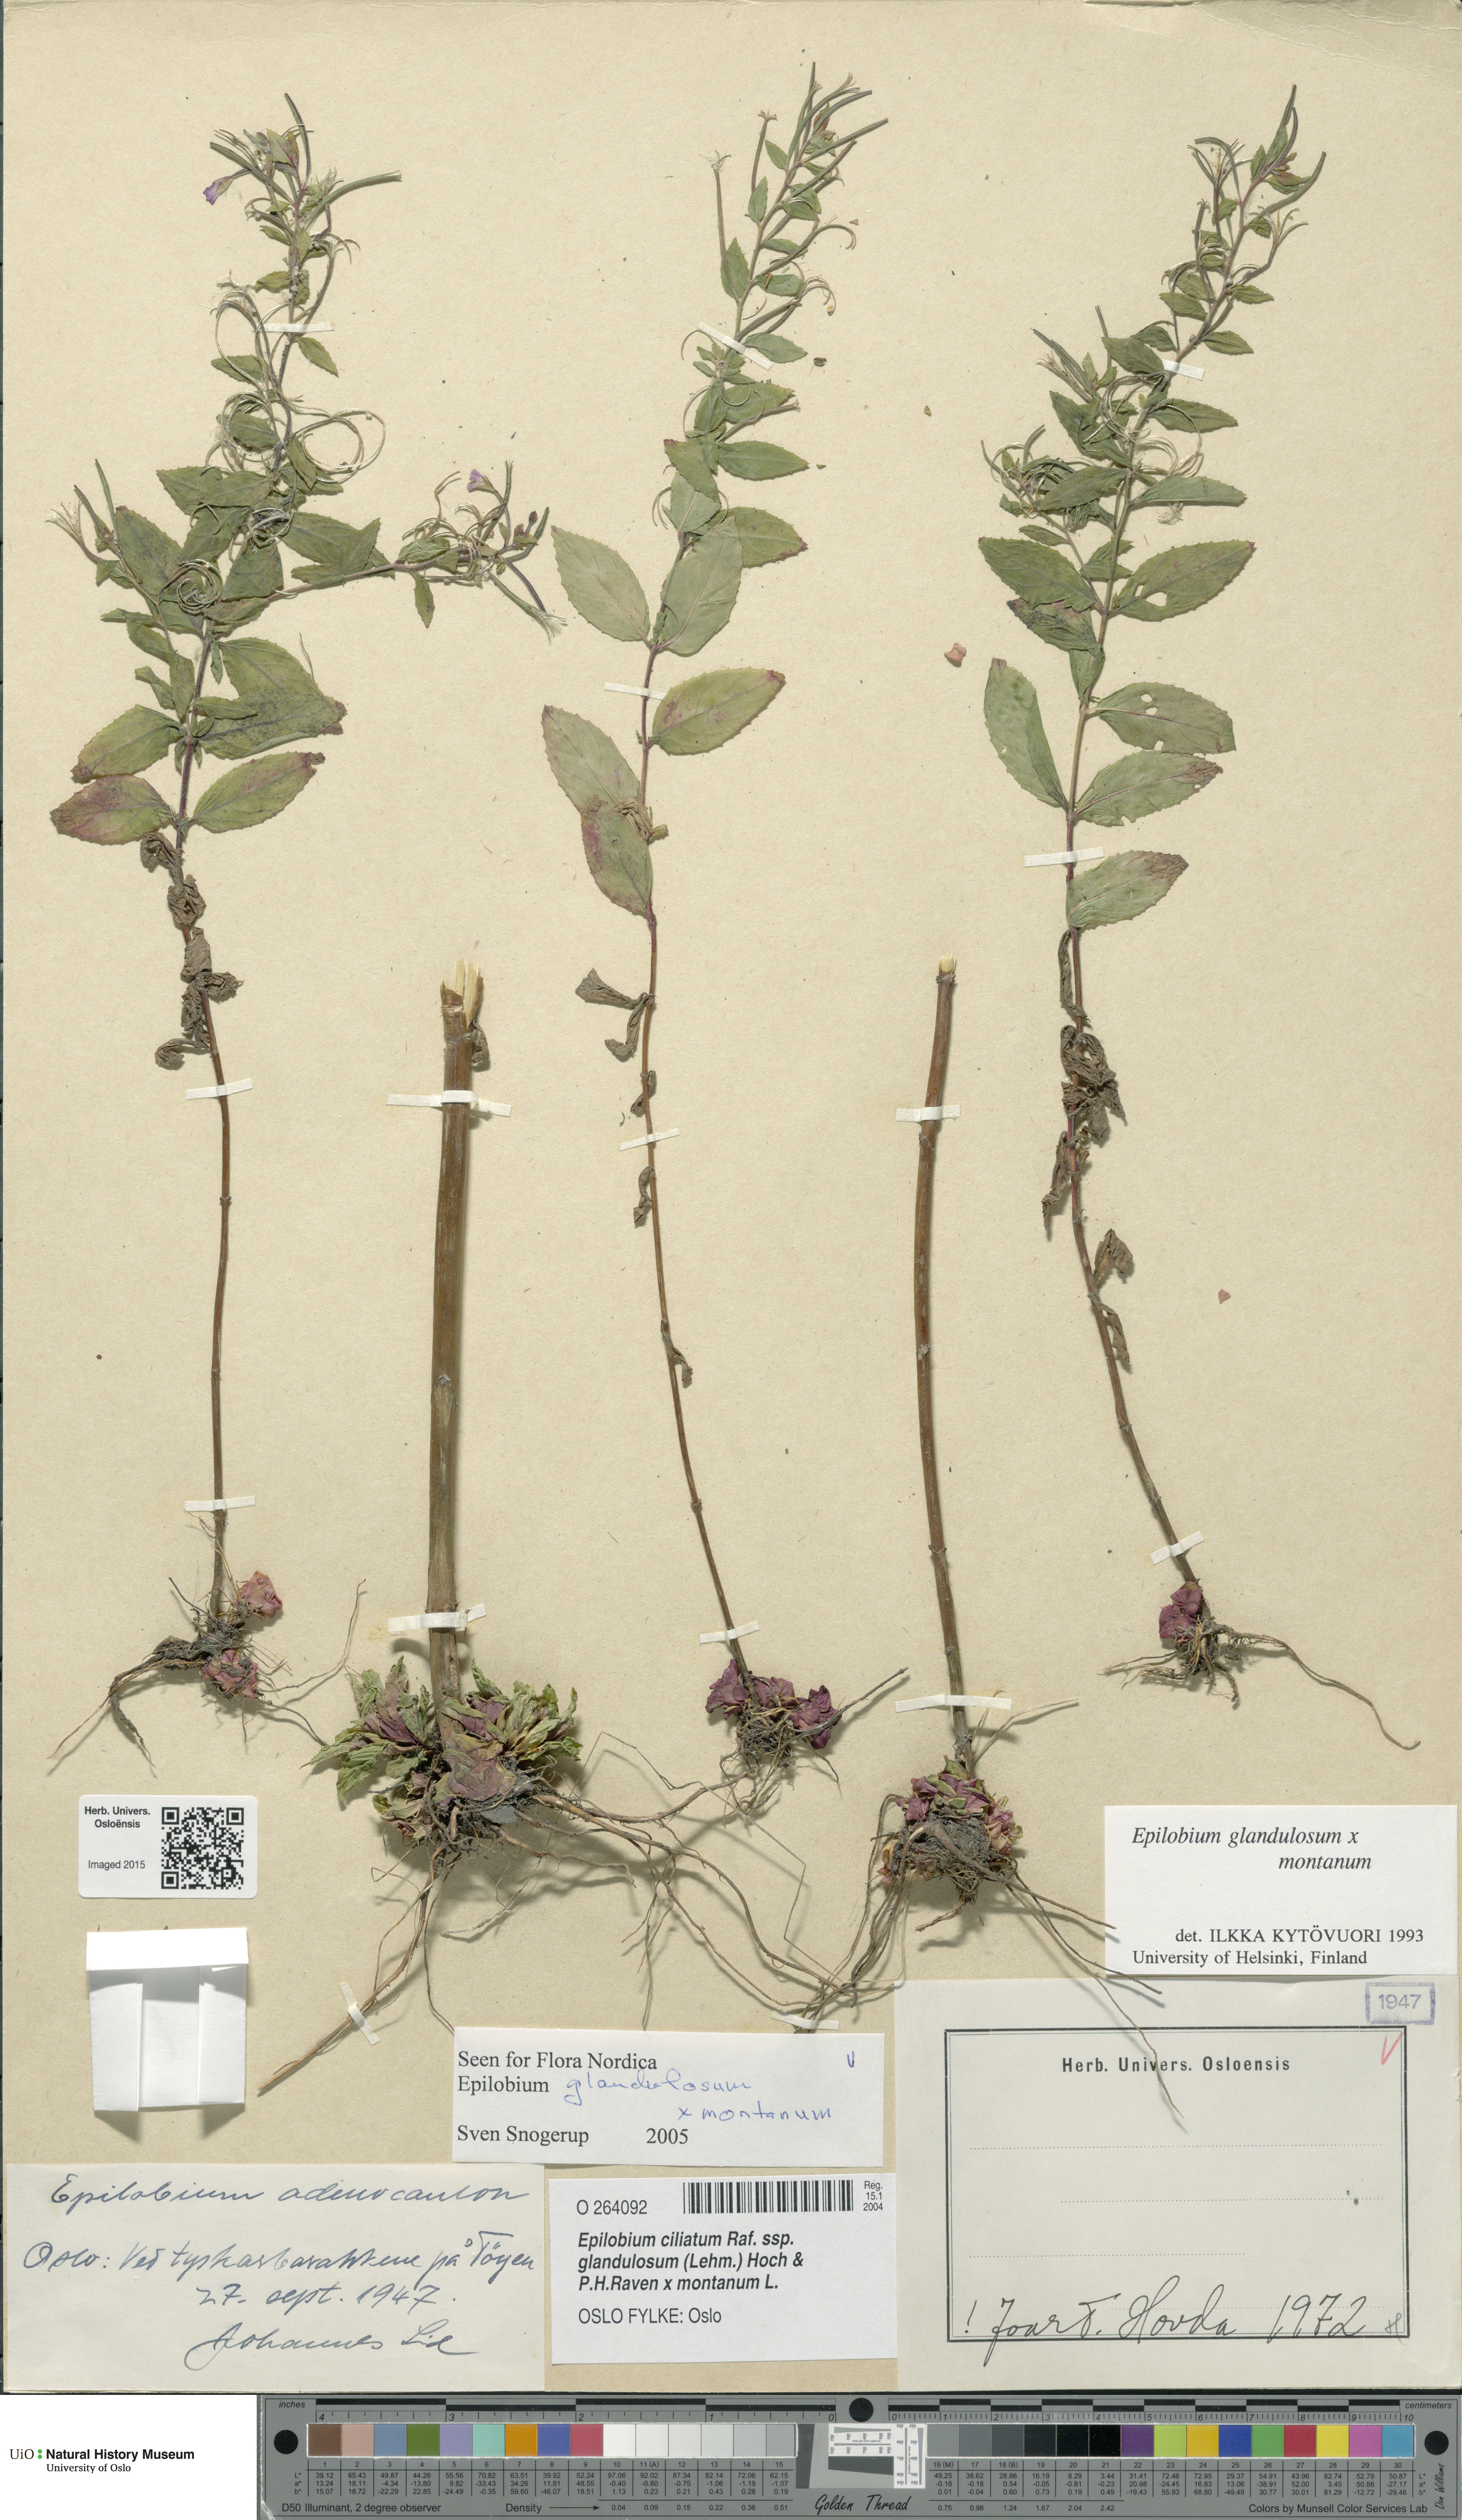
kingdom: Plantae
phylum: Tracheophyta
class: Magnoliopsida
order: Myrtales
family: Onagraceae
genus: Epilobium
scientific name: Epilobium
